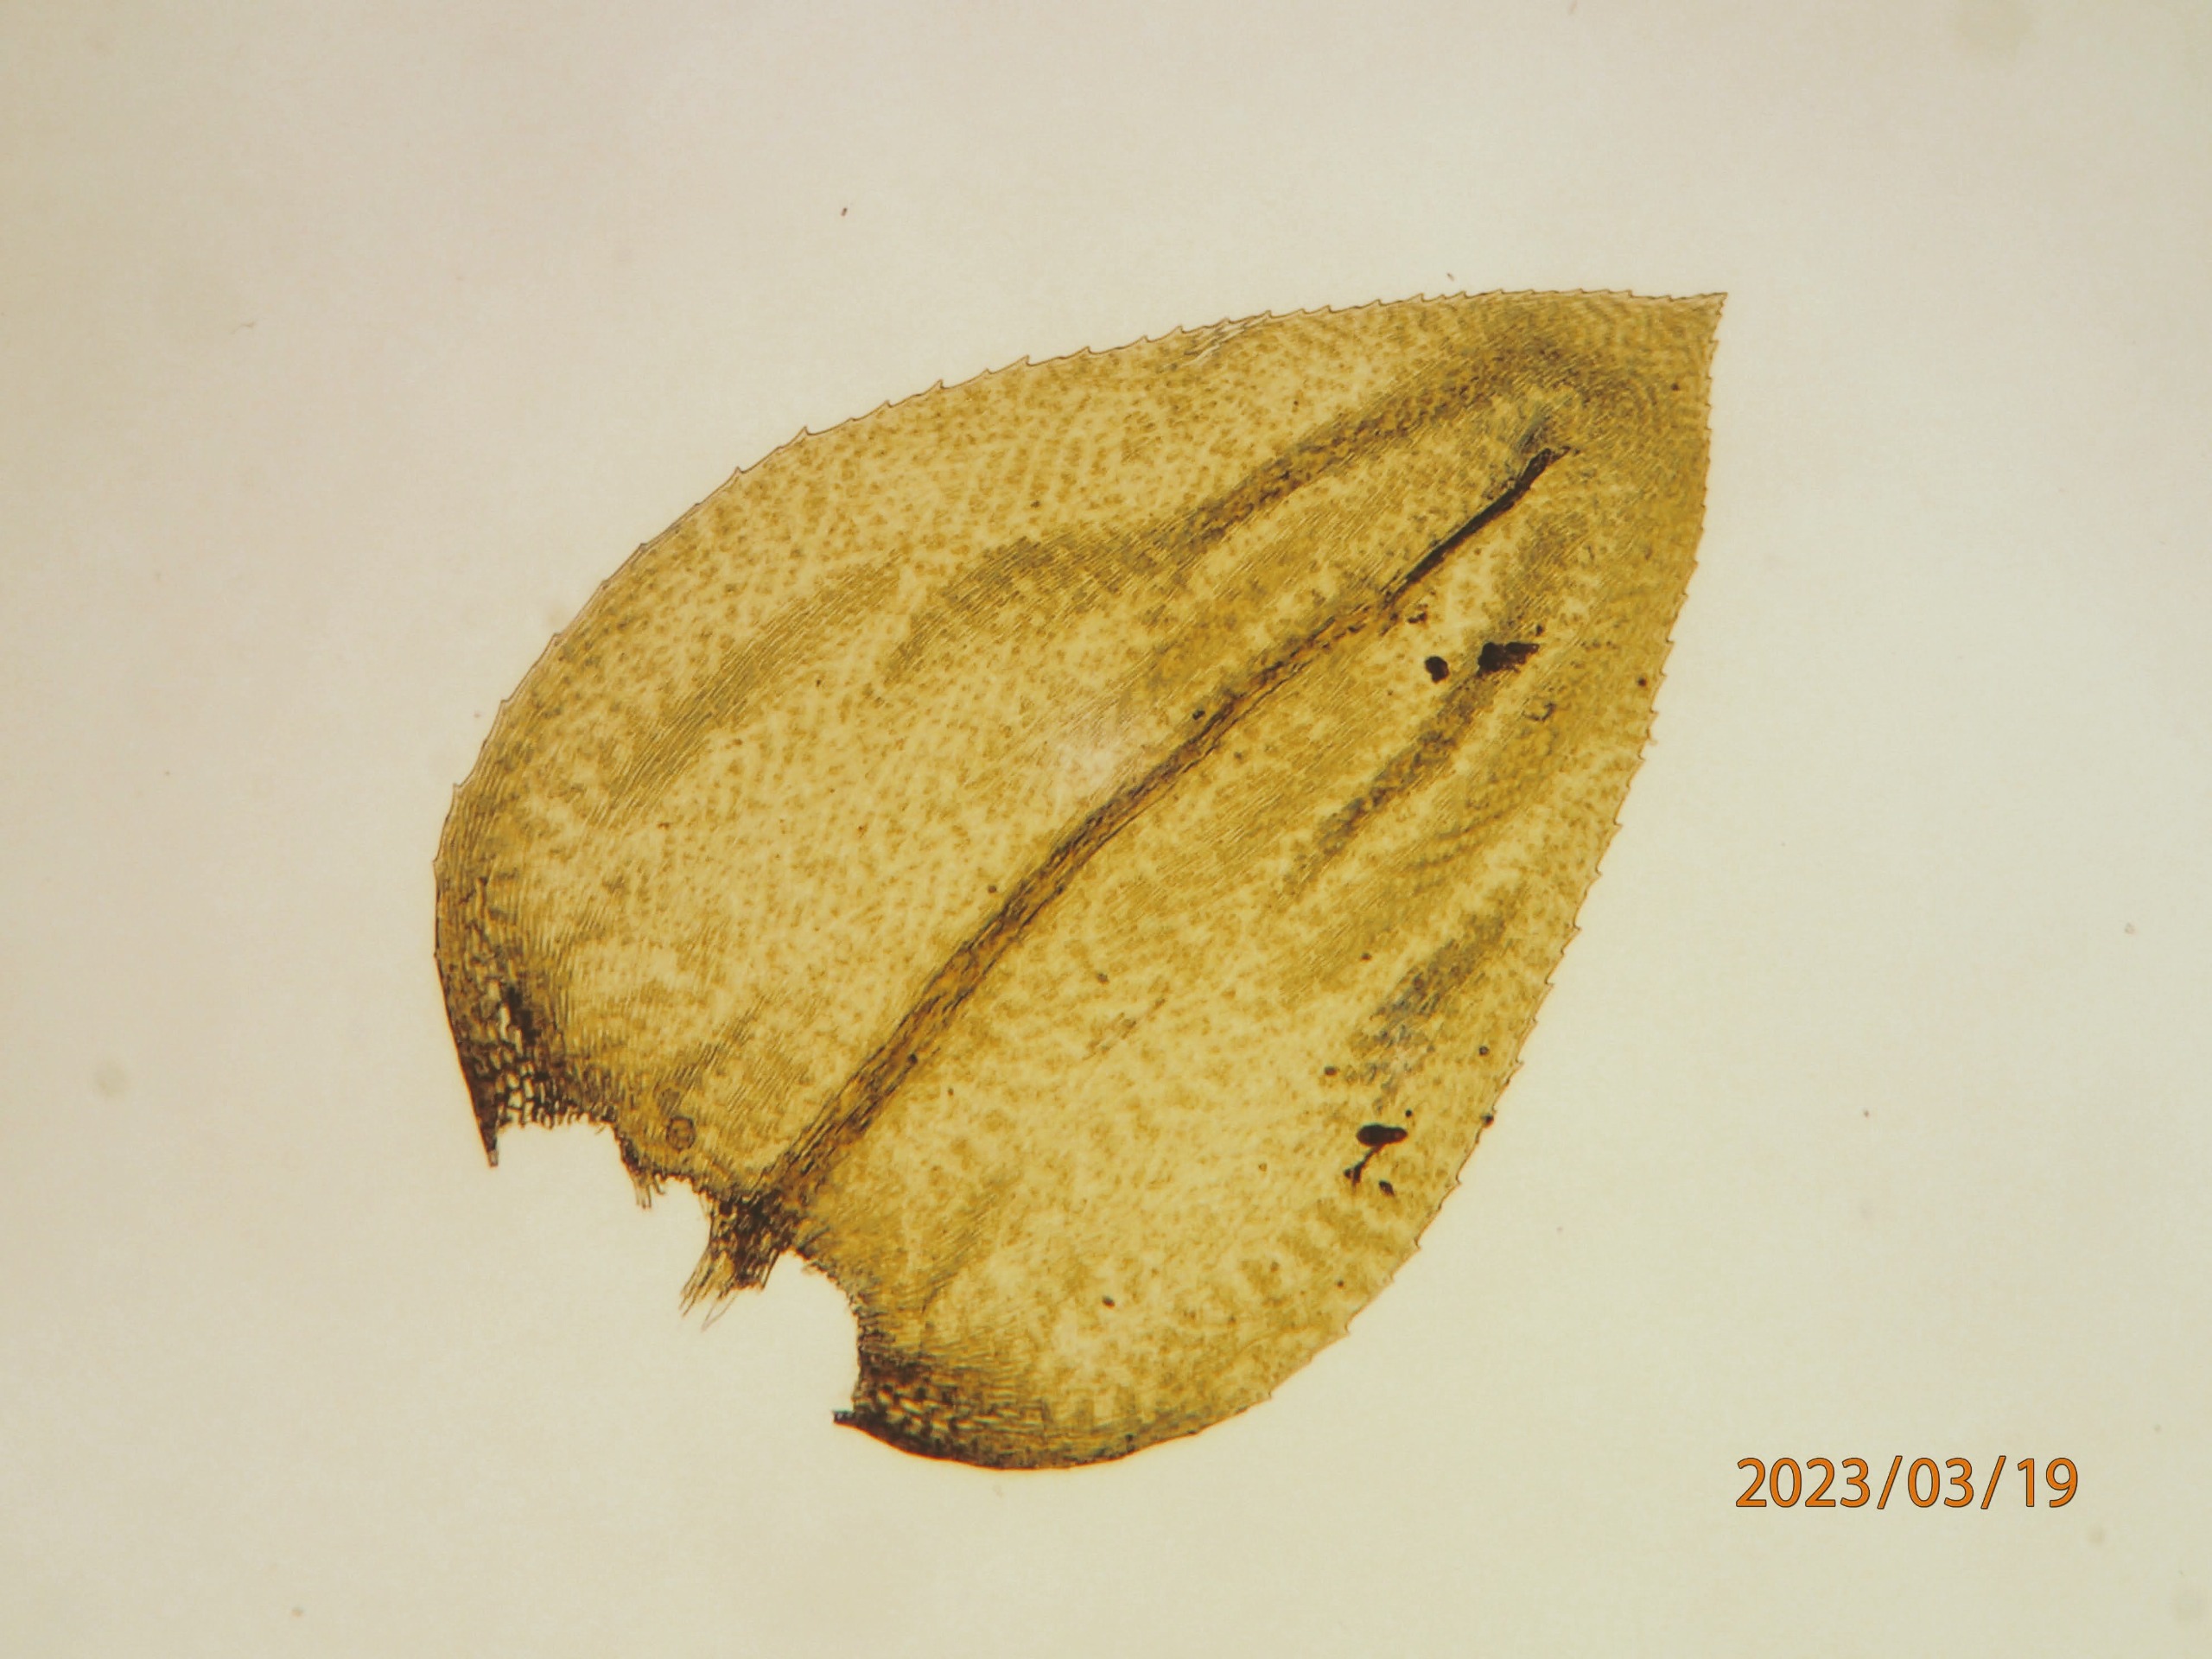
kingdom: Plantae
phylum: Bryophyta
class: Bryopsida
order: Hypnales
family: Brachytheciaceae
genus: Eurhynchium
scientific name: Eurhynchium angustirete
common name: Stor næbmos
